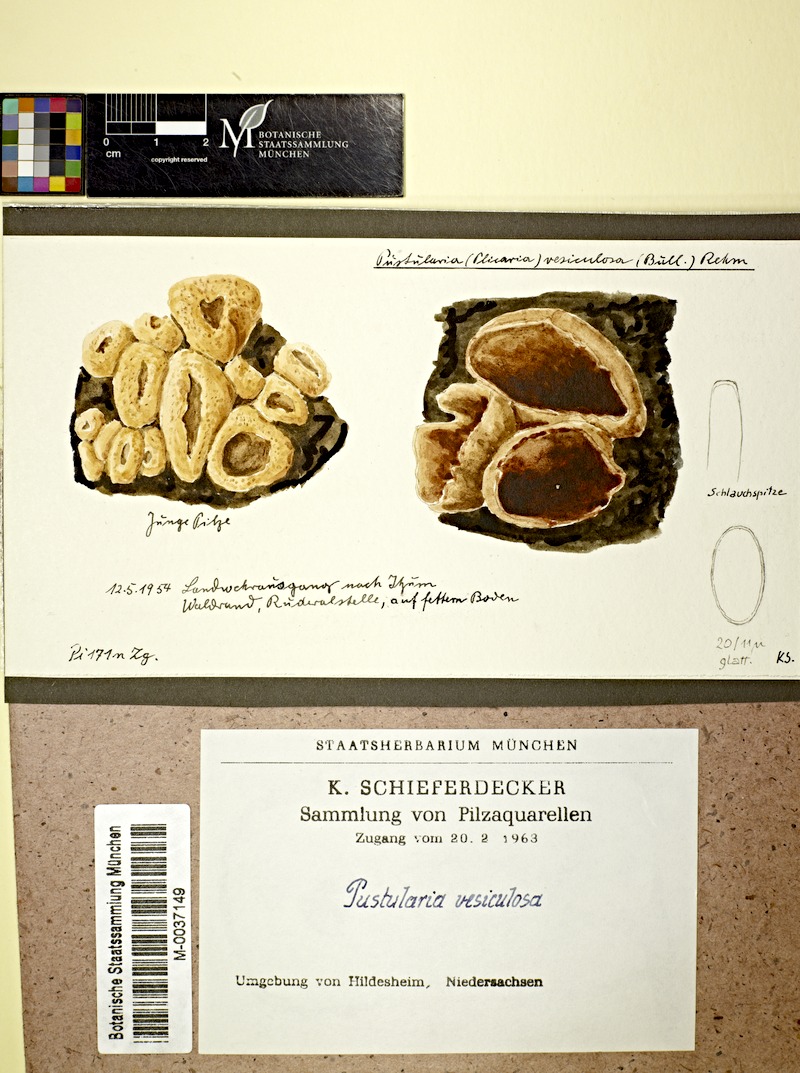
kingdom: Fungi
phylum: Ascomycota
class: Pezizomycetes
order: Pezizales
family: Pezizaceae
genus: Peziza
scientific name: Peziza vesiculosa
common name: Blistered cup
